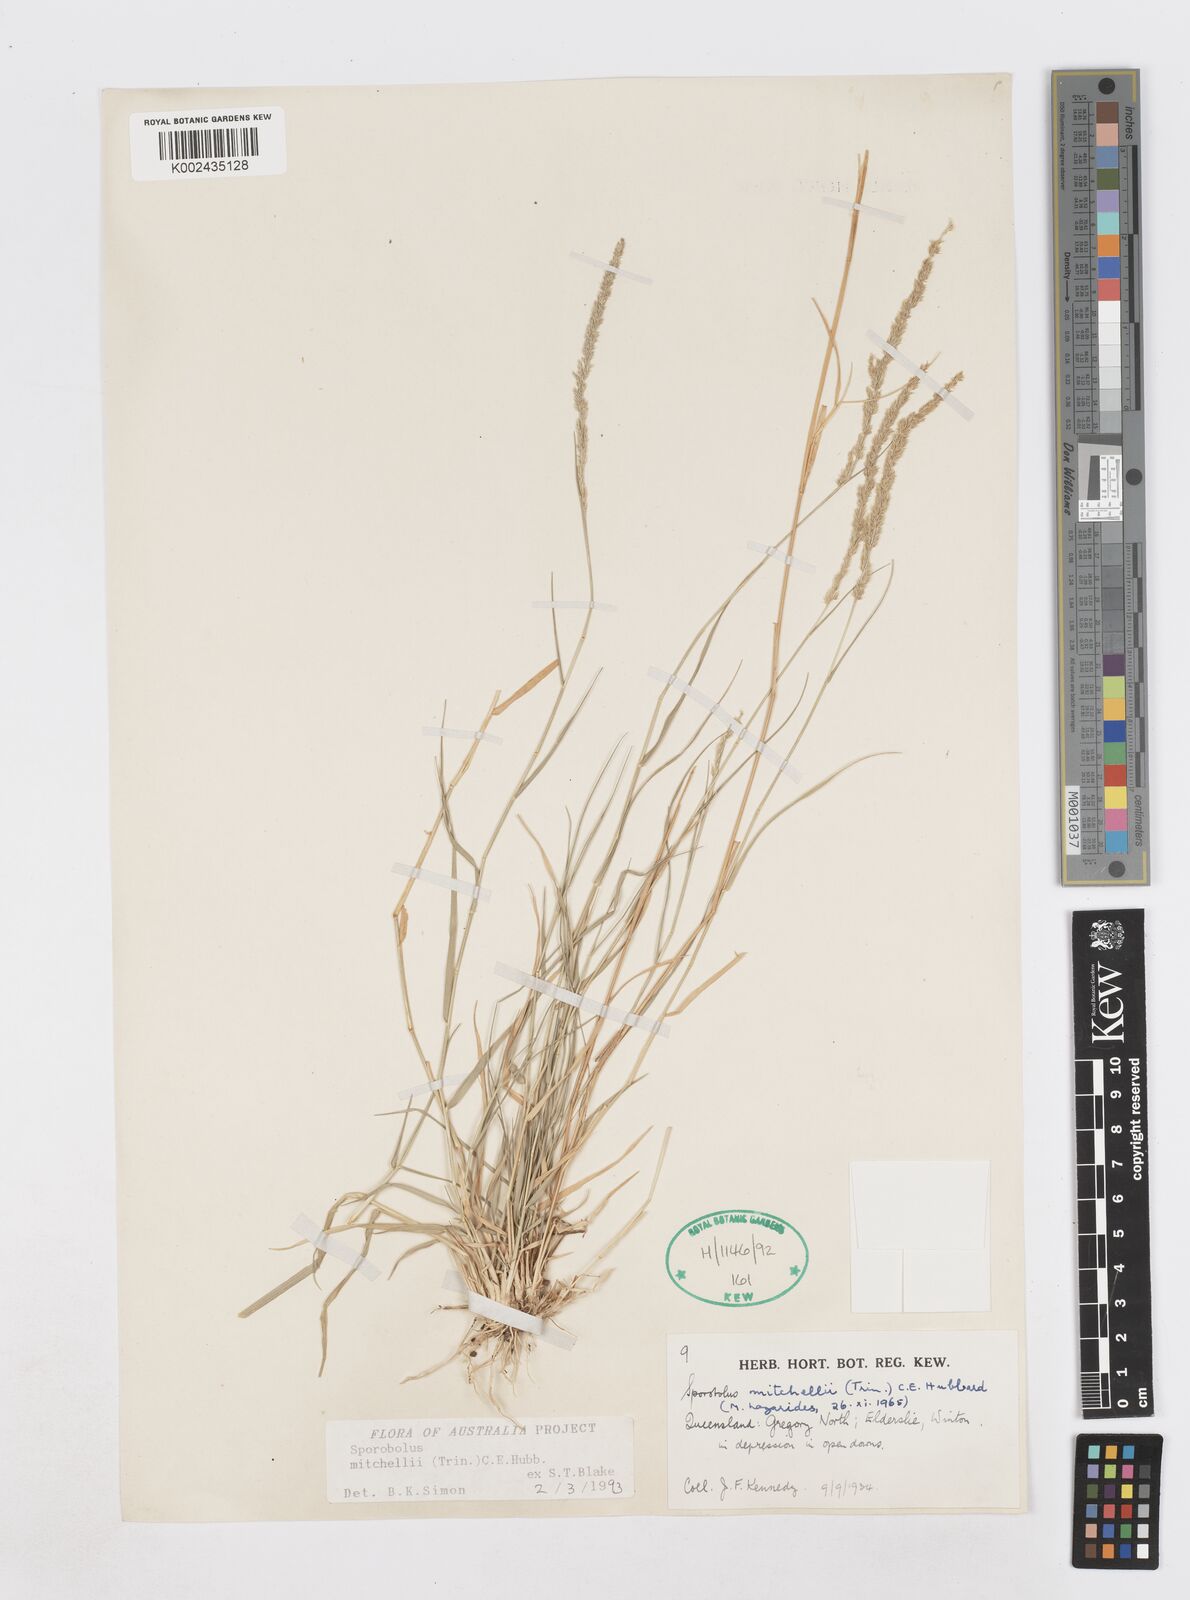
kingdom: Plantae
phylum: Tracheophyta
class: Liliopsida
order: Poales
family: Poaceae
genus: Sporobolus
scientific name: Sporobolus mitchellii
